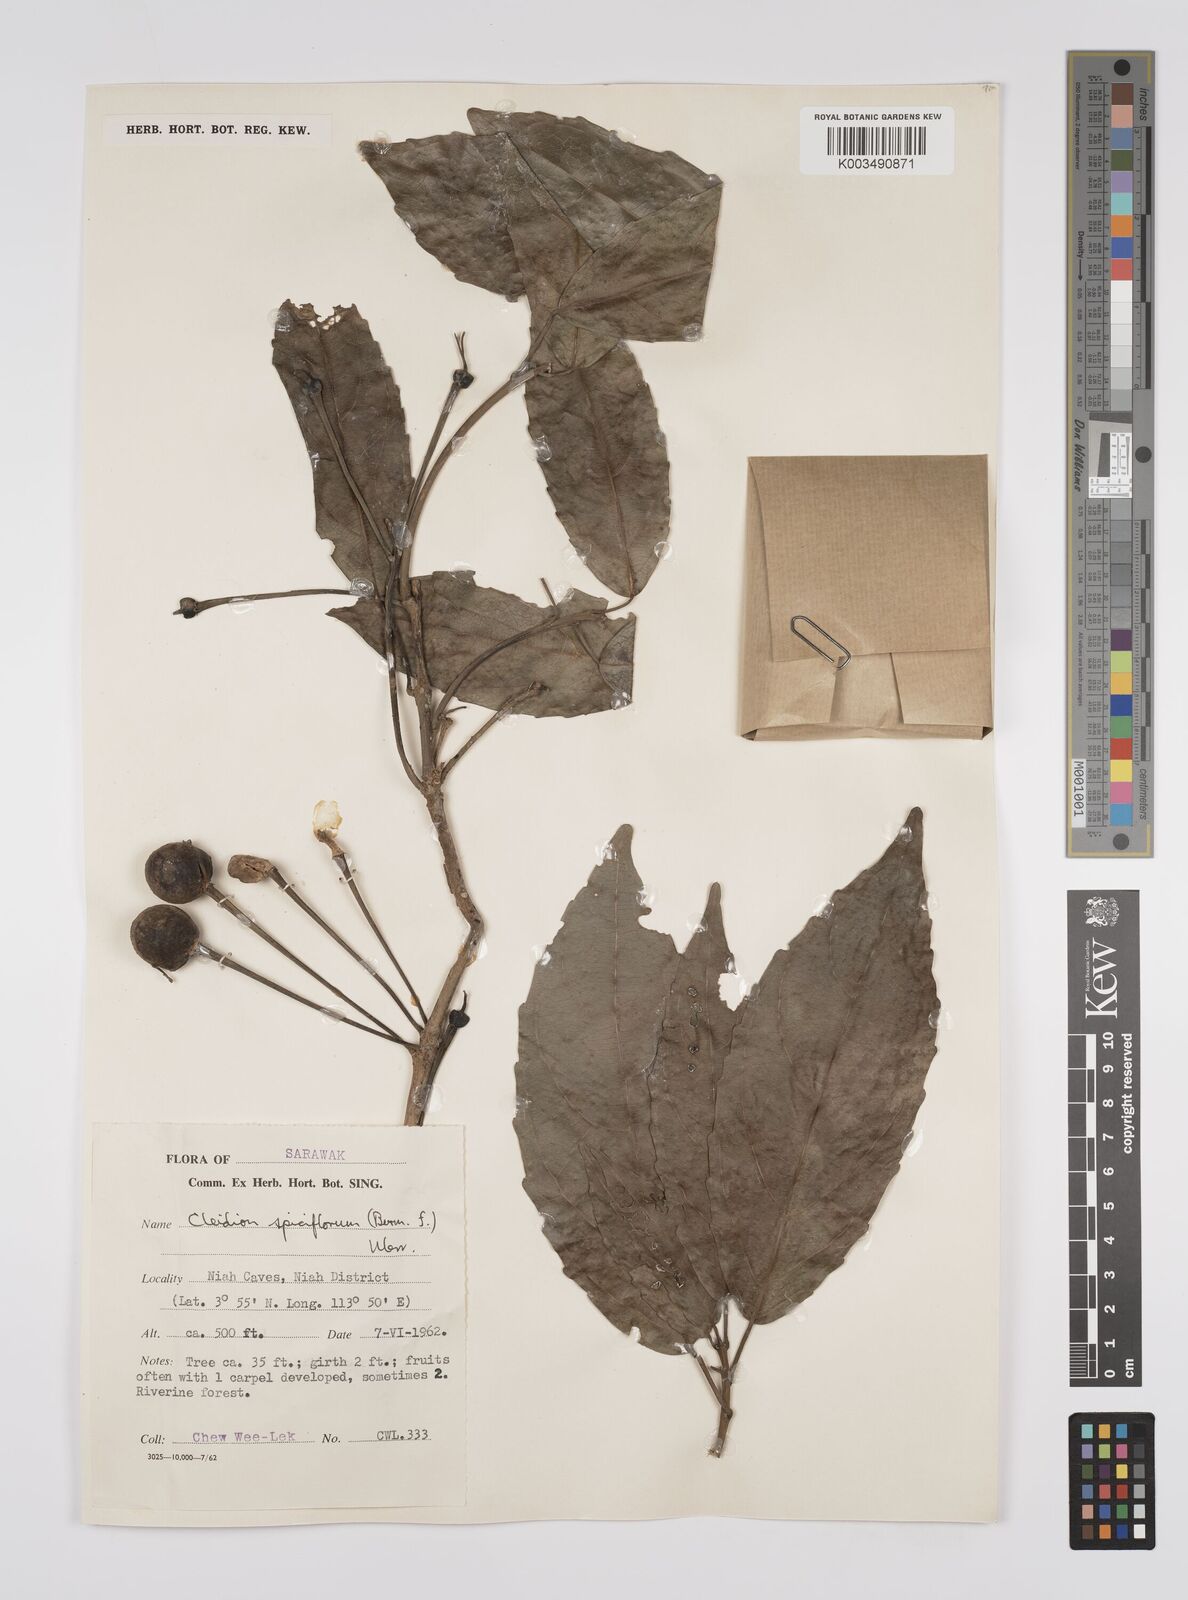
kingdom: Plantae
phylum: Tracheophyta
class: Magnoliopsida
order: Malpighiales
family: Euphorbiaceae
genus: Acalypha
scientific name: Acalypha spiciflora
